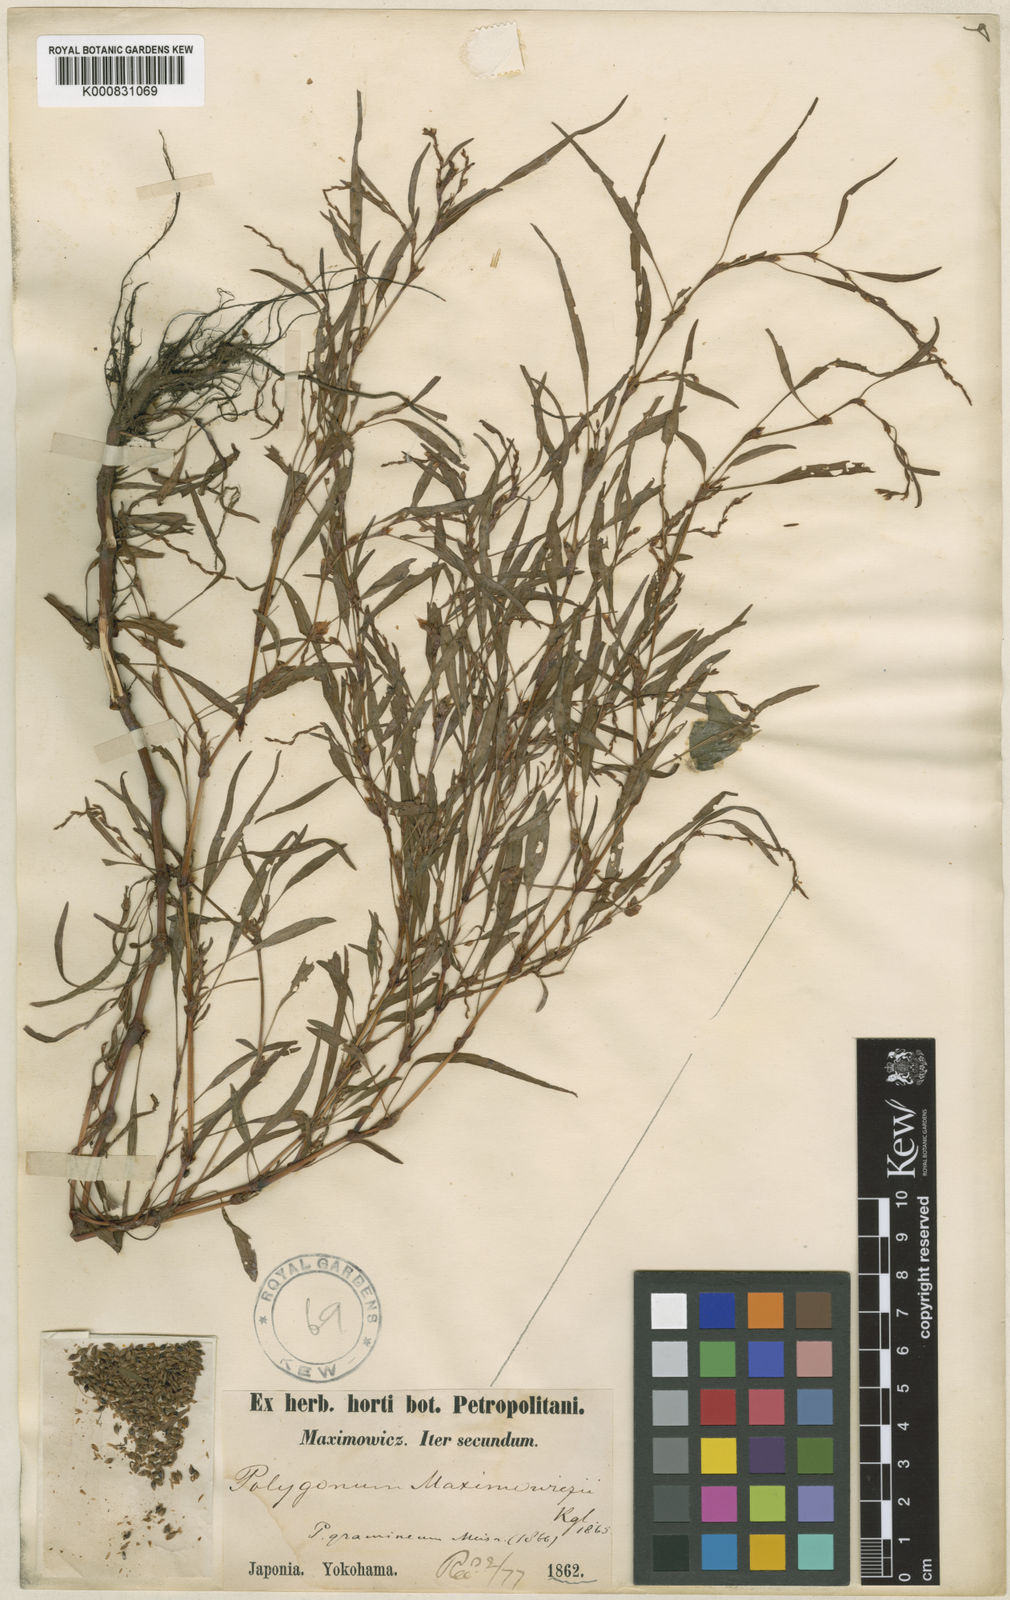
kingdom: Plantae
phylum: Tracheophyta
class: Magnoliopsida
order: Caryophyllales
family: Polygonaceae
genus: Persicaria
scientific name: Persicaria hydropiper
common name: Water-pepper
